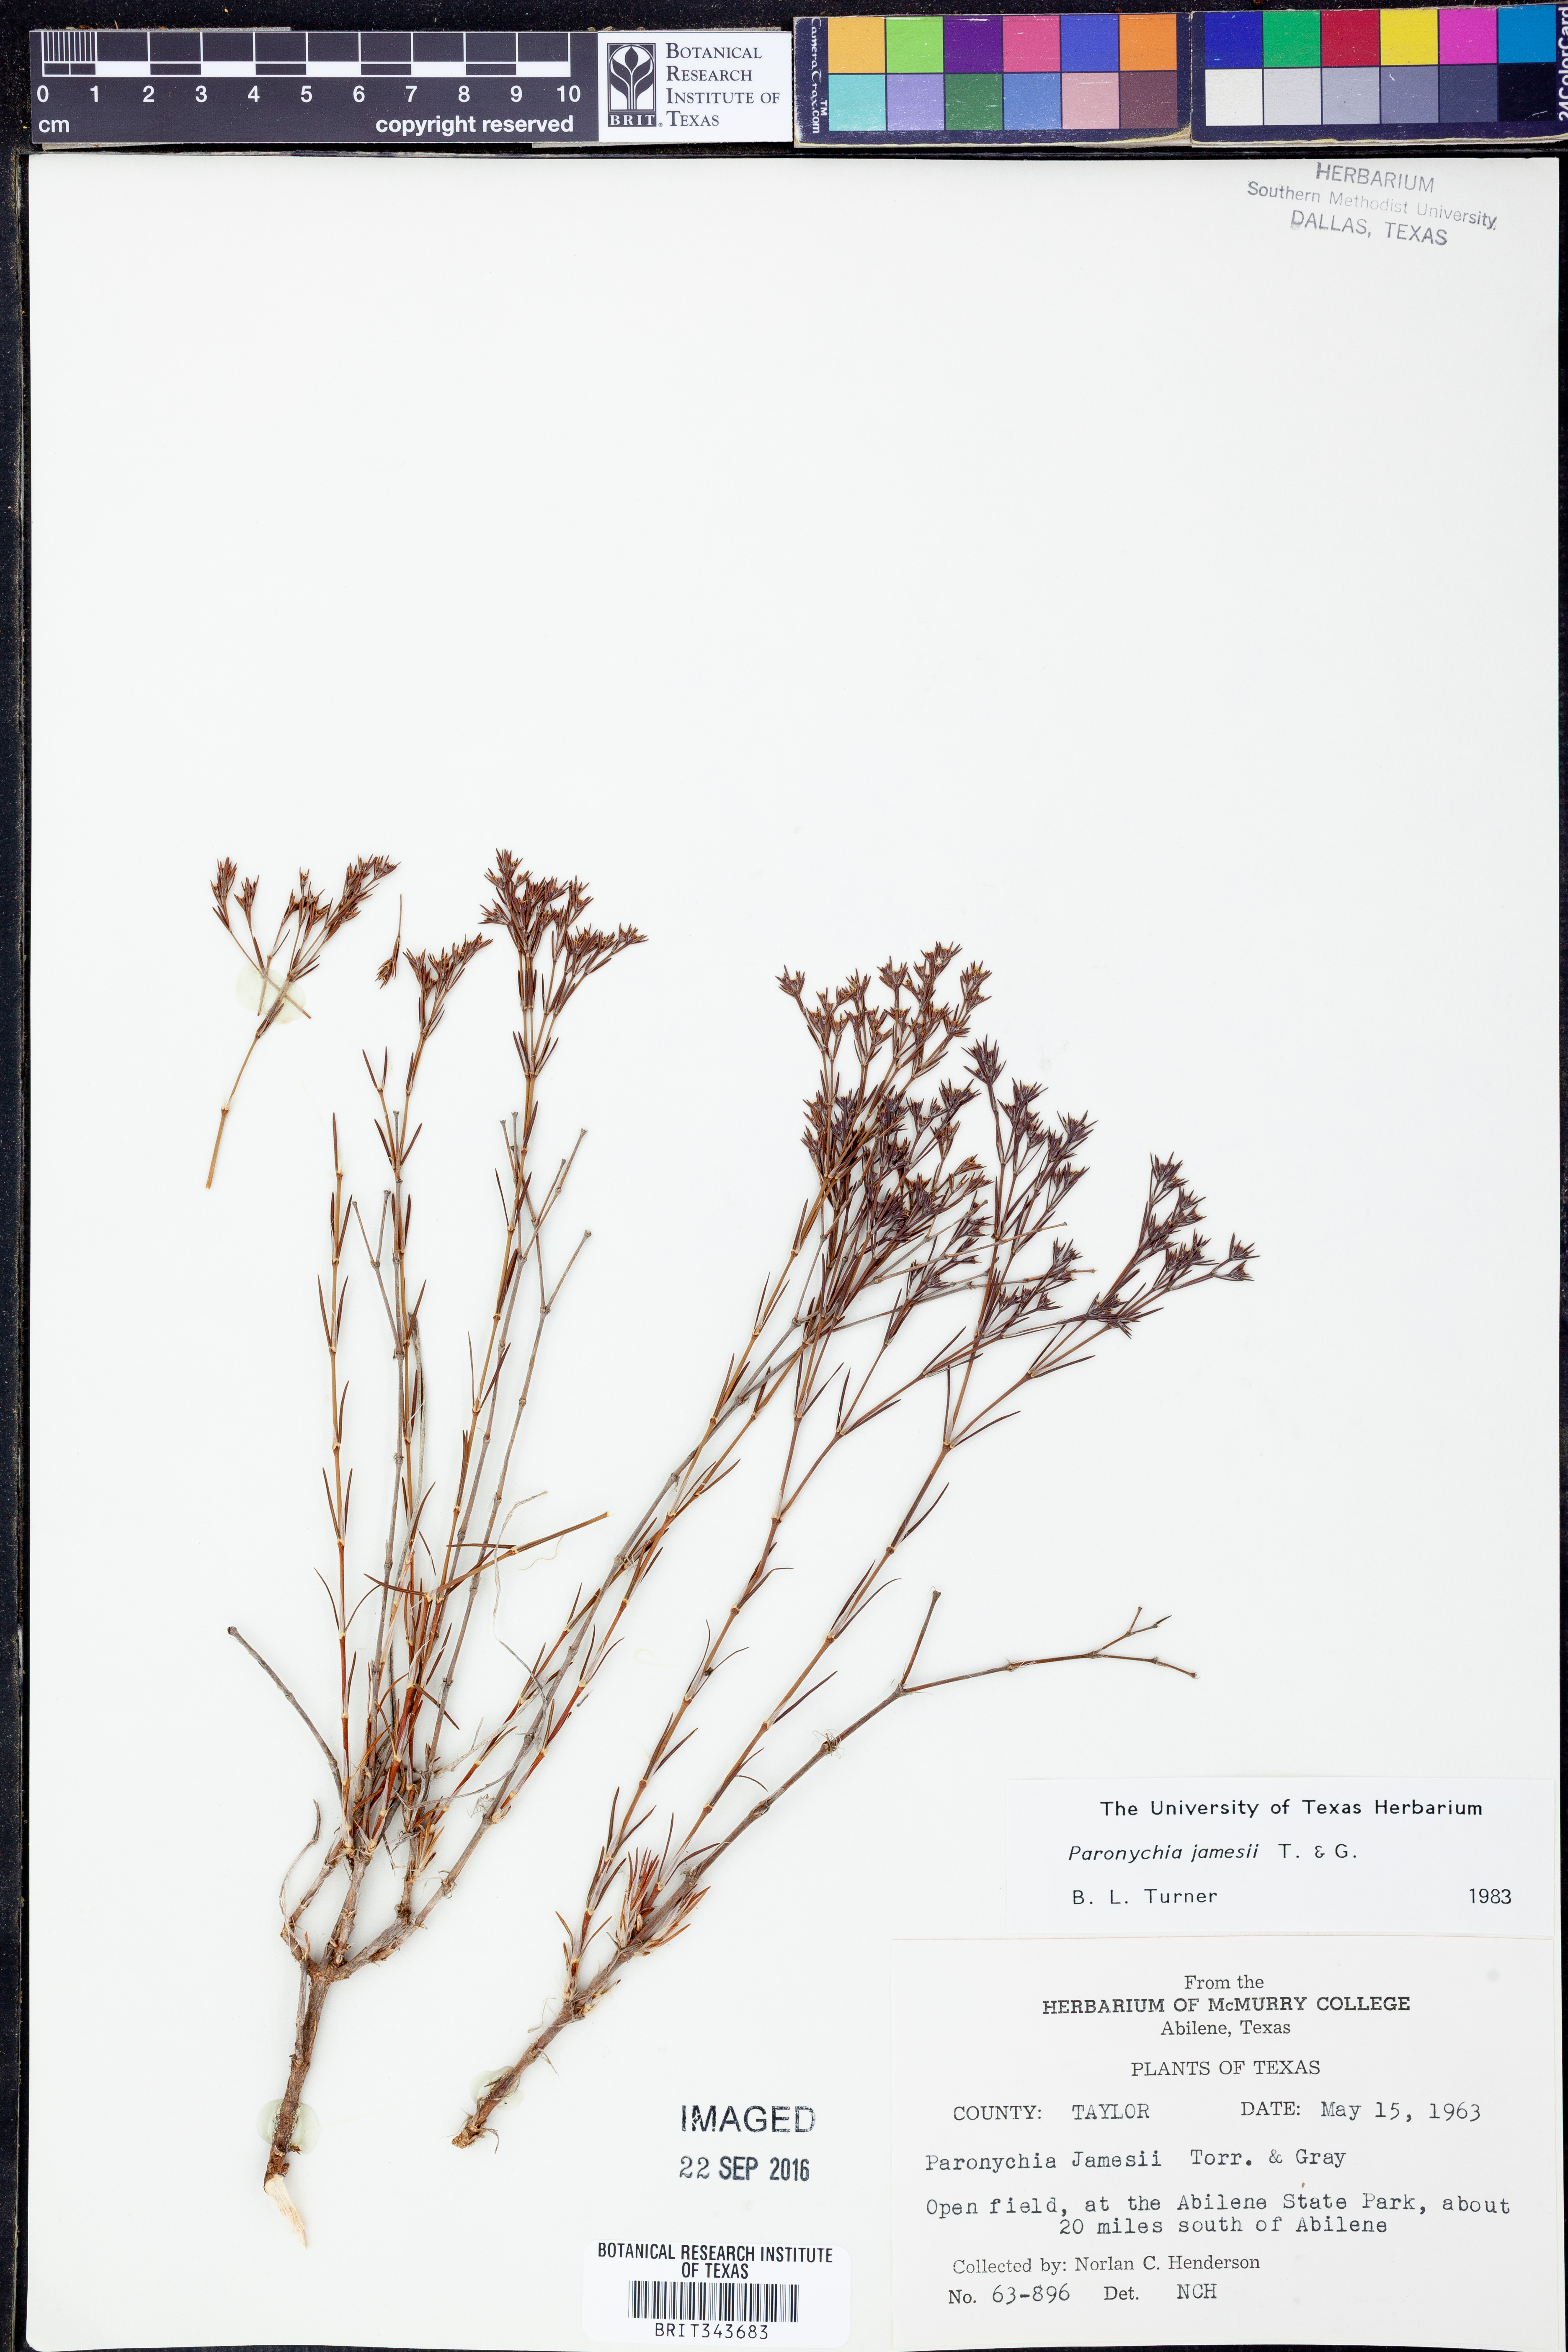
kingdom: Plantae
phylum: Tracheophyta
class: Magnoliopsida
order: Caryophyllales
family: Caryophyllaceae
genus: Paronychia
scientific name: Paronychia jamesii
